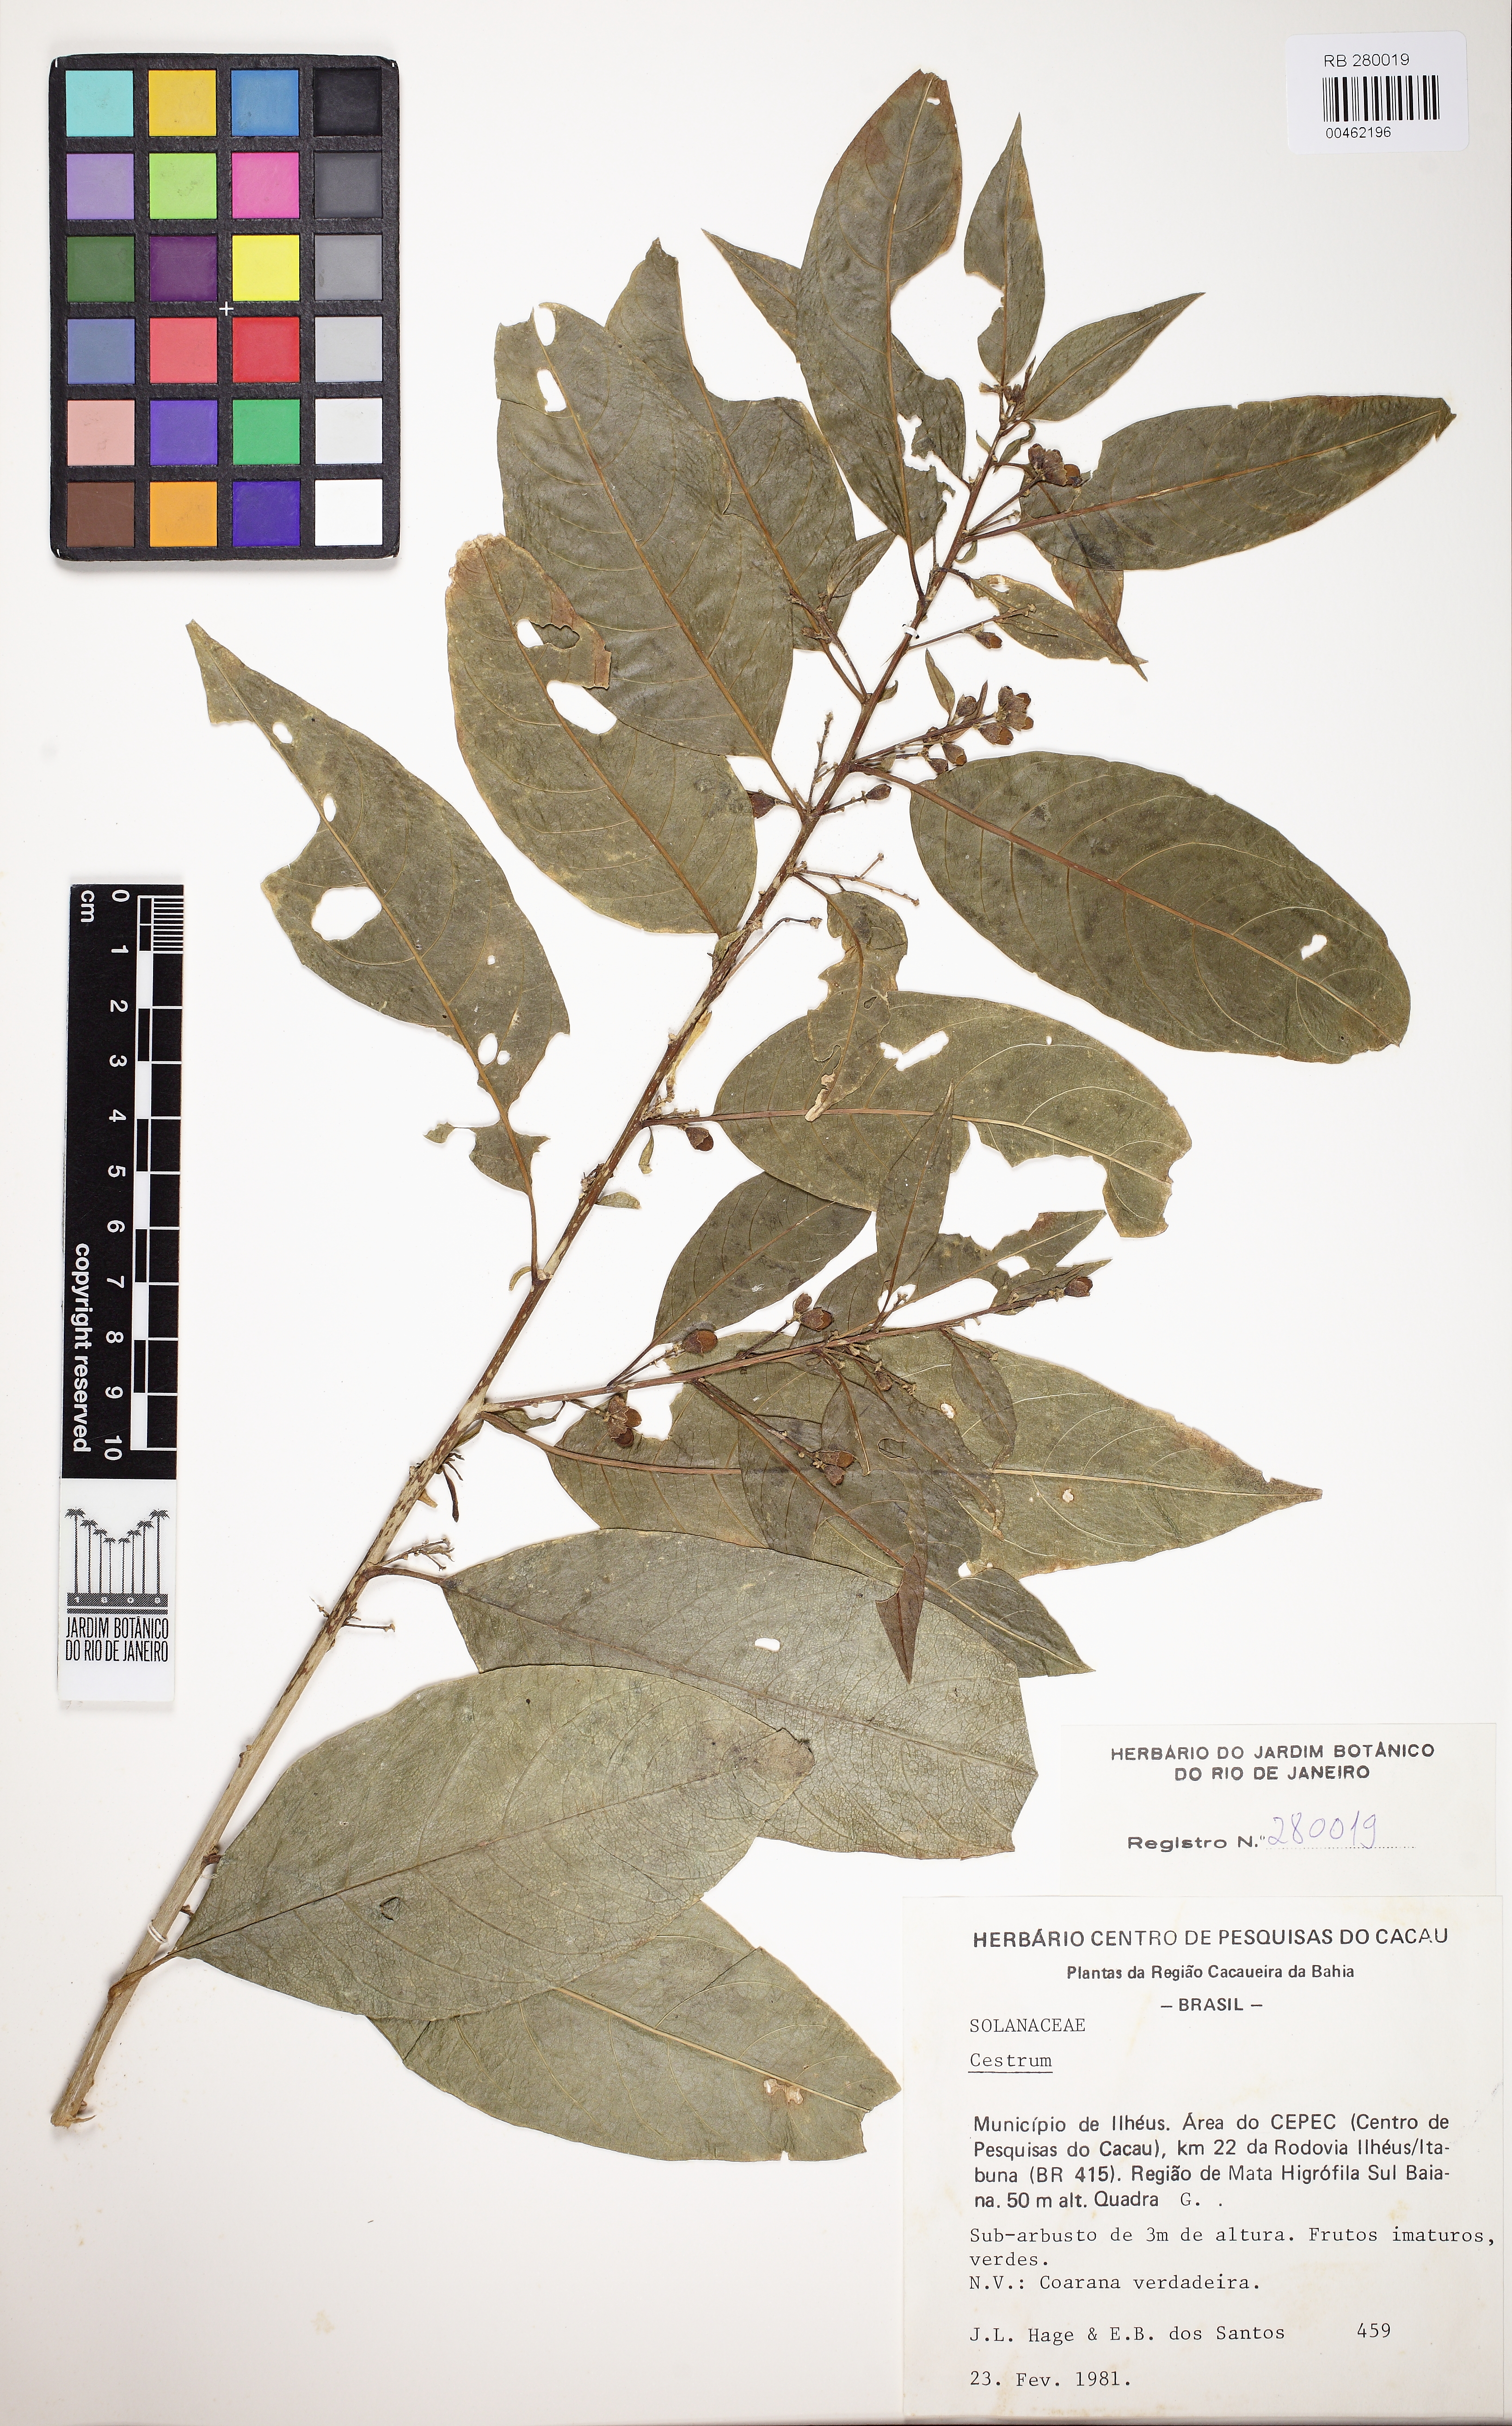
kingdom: Plantae
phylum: Tracheophyta
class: Magnoliopsida
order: Solanales
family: Solanaceae
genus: Cestrum
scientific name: Cestrum
